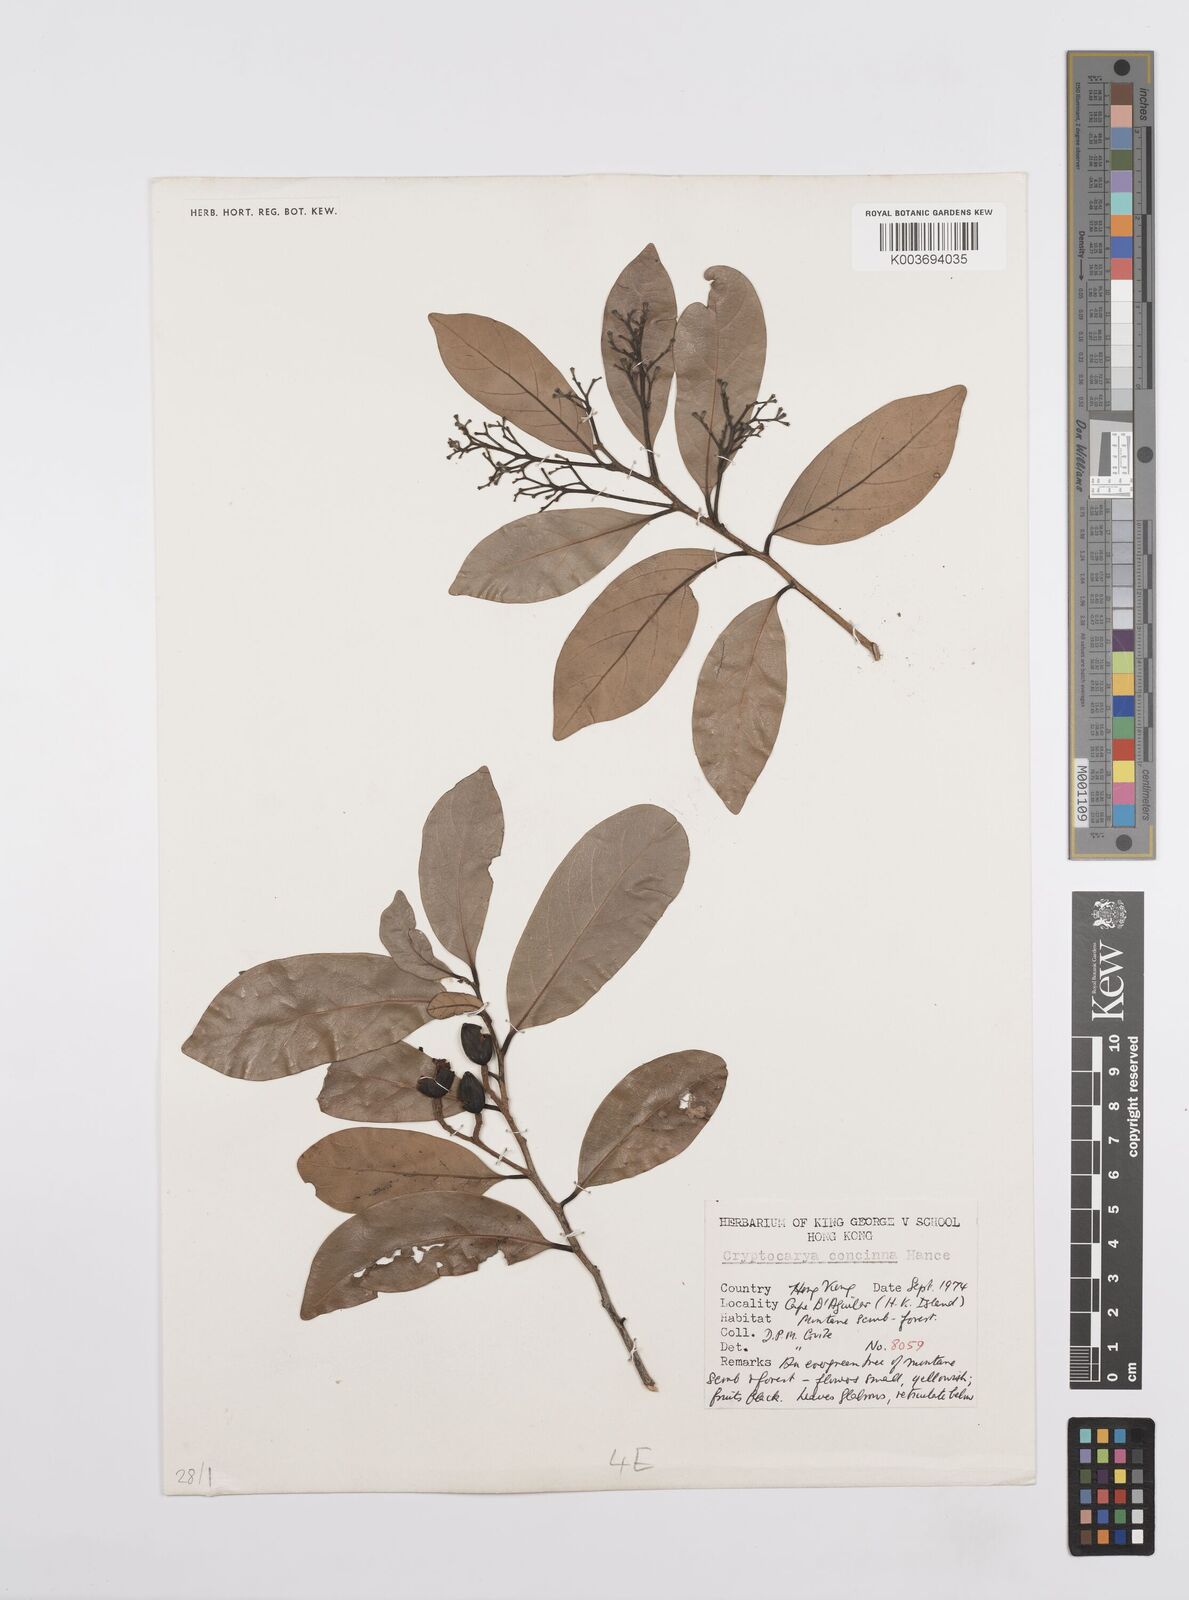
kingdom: Plantae
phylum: Tracheophyta
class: Magnoliopsida
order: Laurales
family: Lauraceae
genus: Cryptocarya
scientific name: Cryptocarya chinensis
